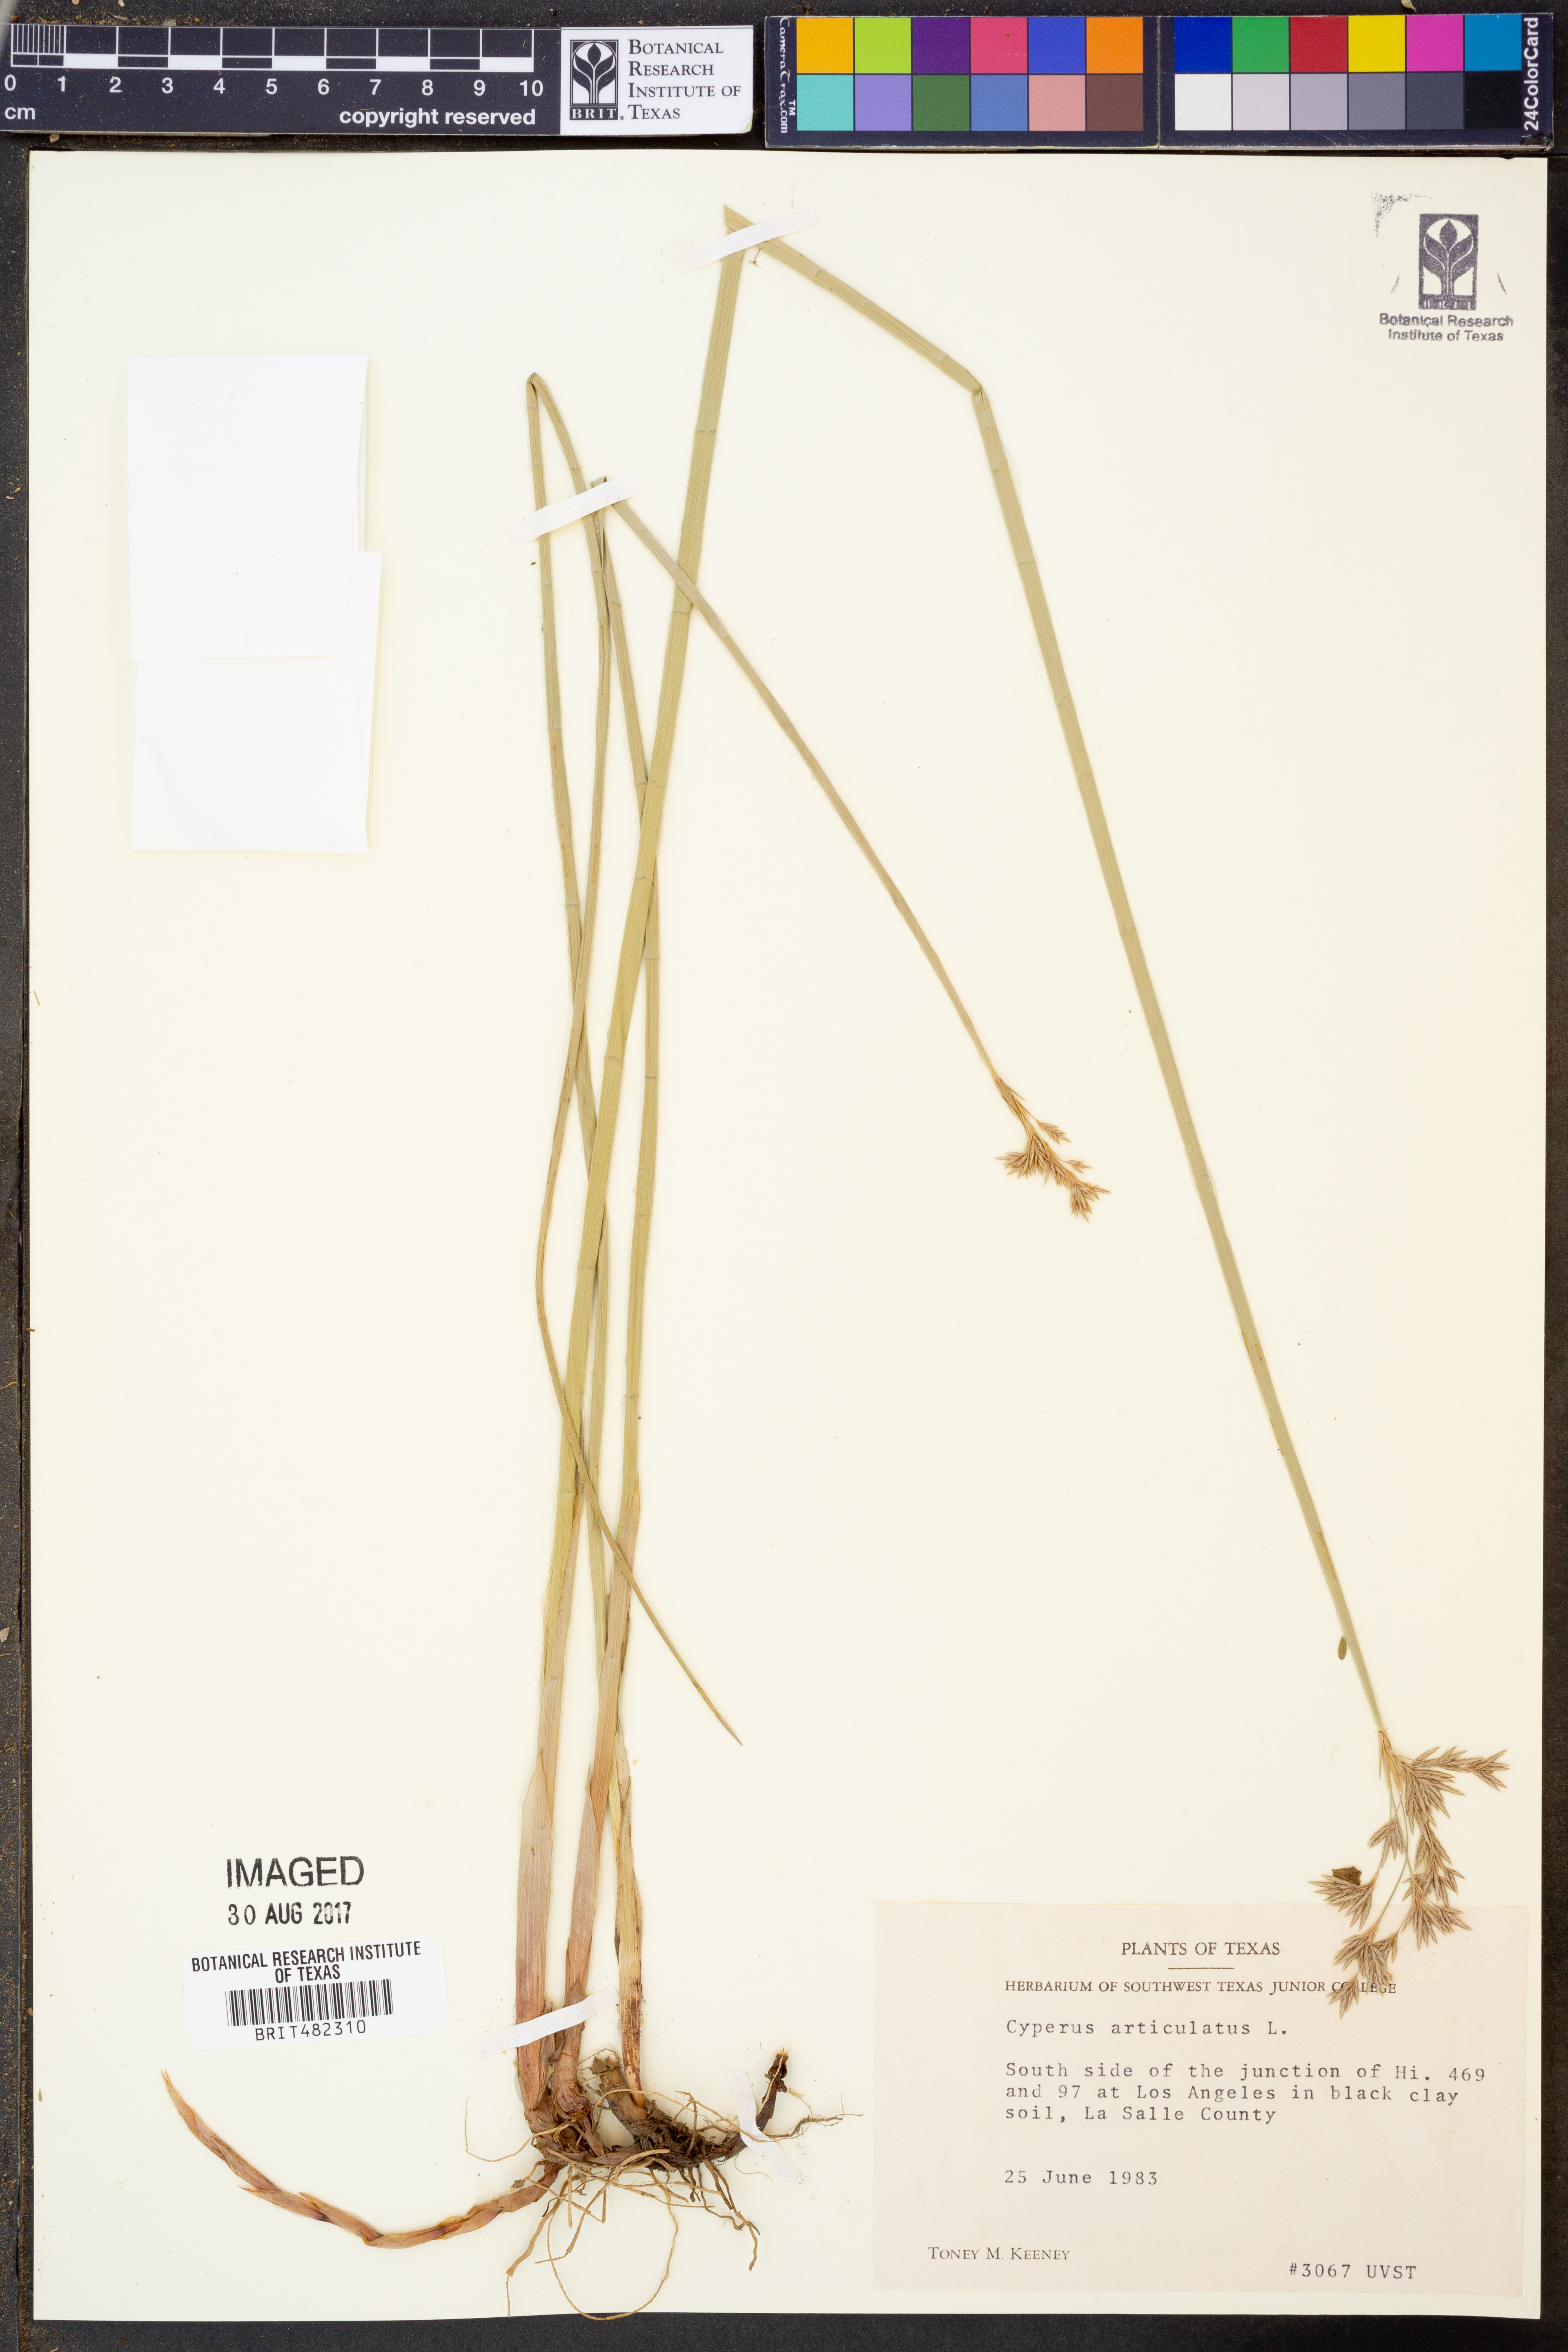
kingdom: Plantae
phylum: Tracheophyta
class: Liliopsida
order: Poales
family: Cyperaceae
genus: Cyperus
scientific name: Cyperus articulatus
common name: Jointed flatsedge
